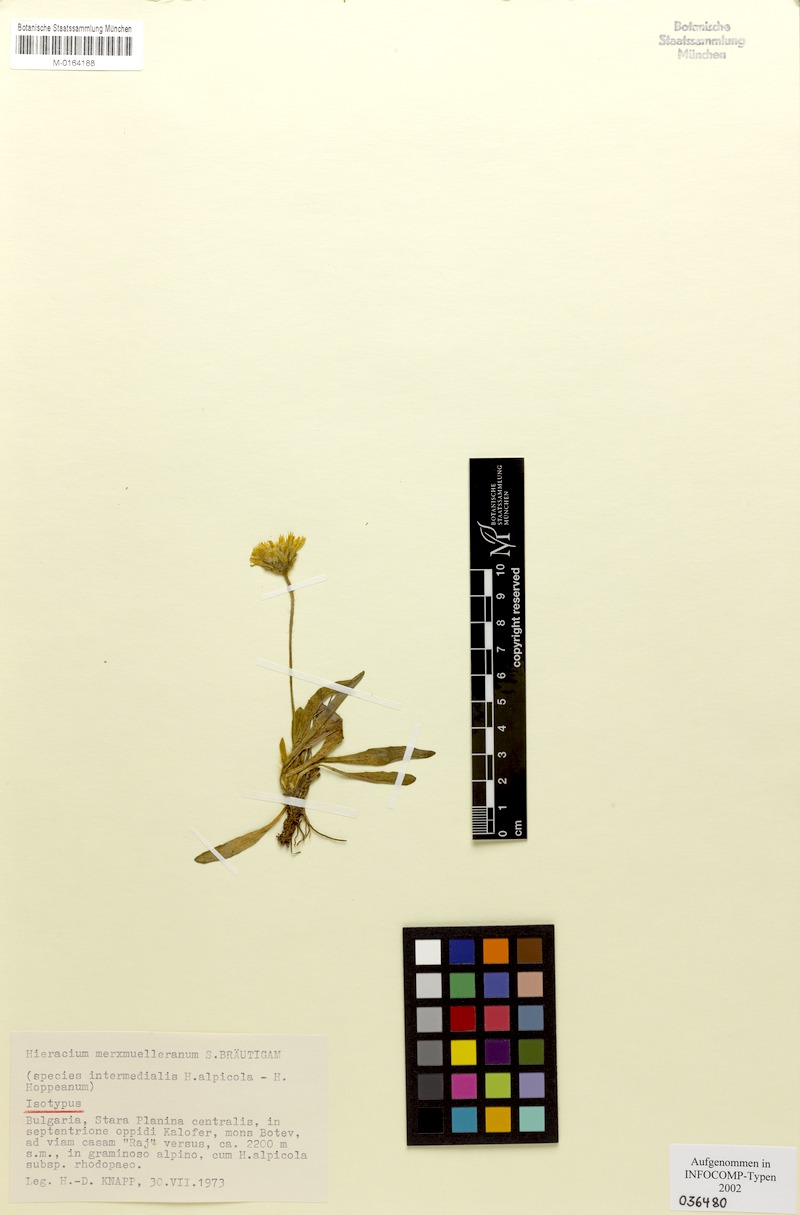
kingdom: Plantae
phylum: Tracheophyta
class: Magnoliopsida
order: Asterales
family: Asteraceae
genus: Pilosella
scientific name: Pilosella merxmuelleriana
